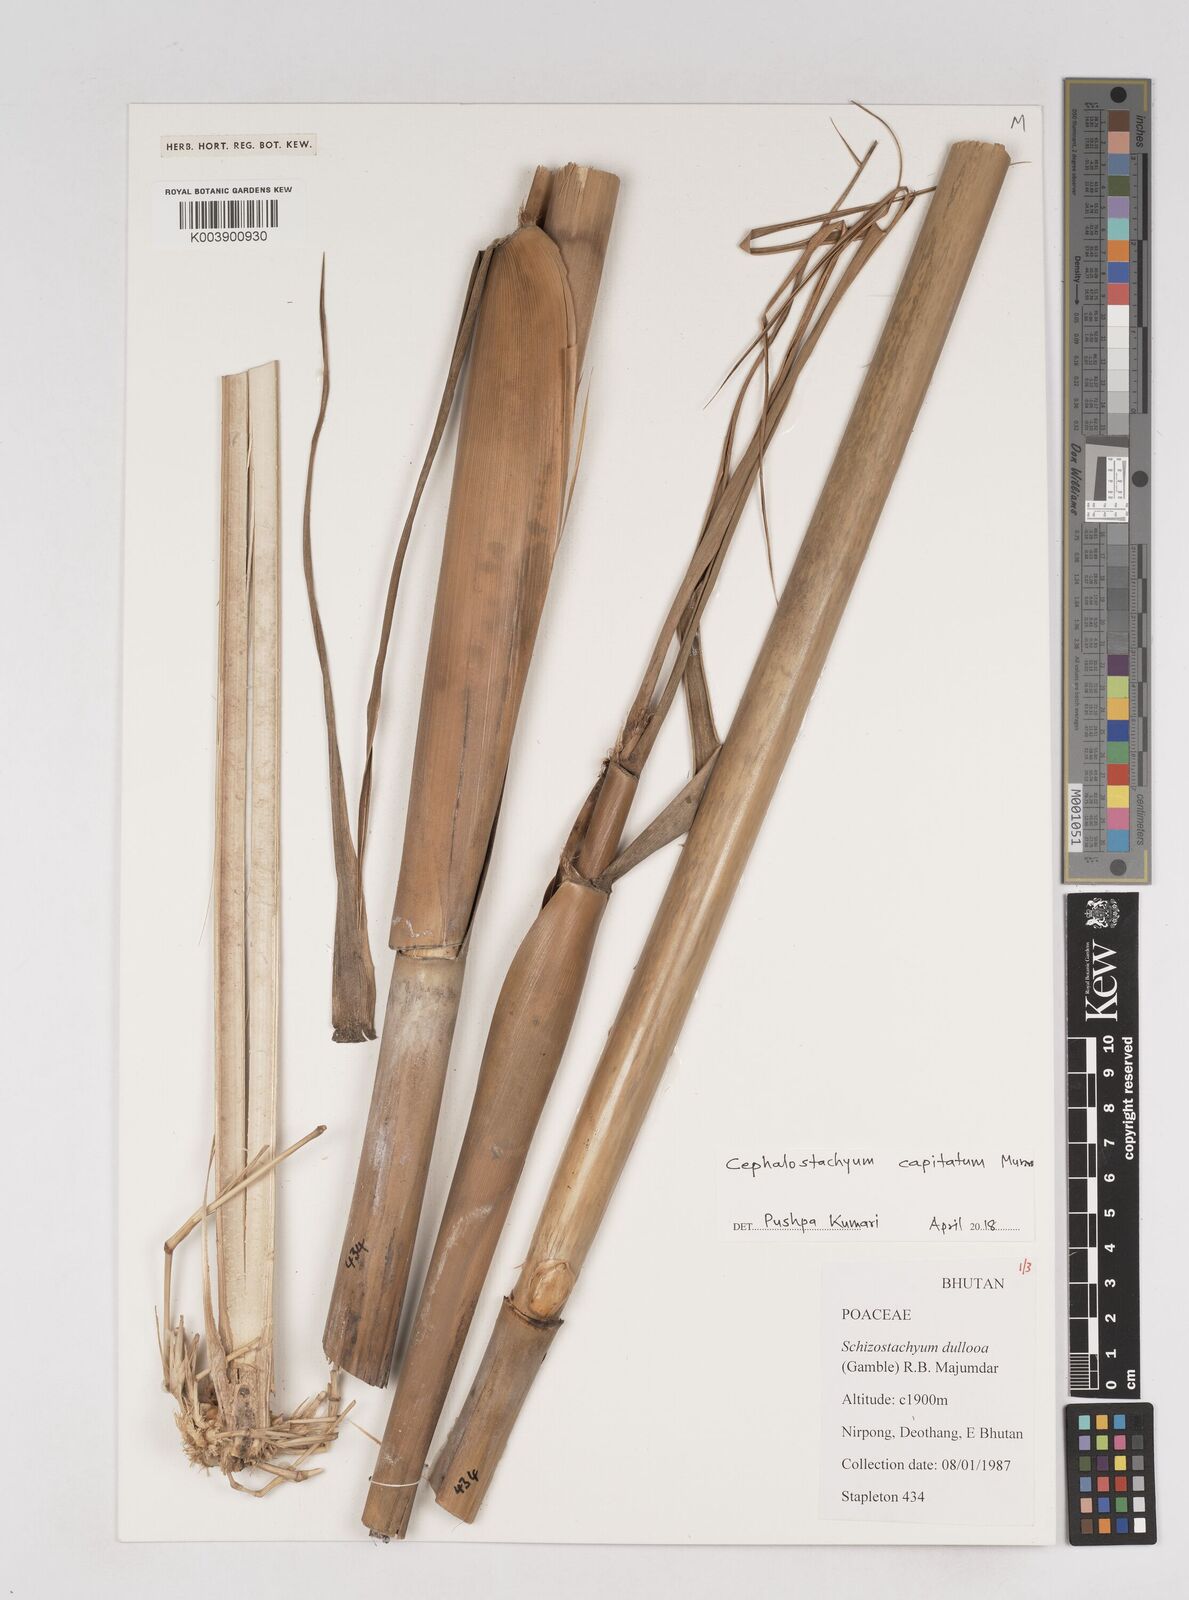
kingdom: Plantae
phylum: Tracheophyta
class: Liliopsida
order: Poales
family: Poaceae
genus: Cephalostachyum
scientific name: Cephalostachyum capitatum
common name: Hollow bamboo
